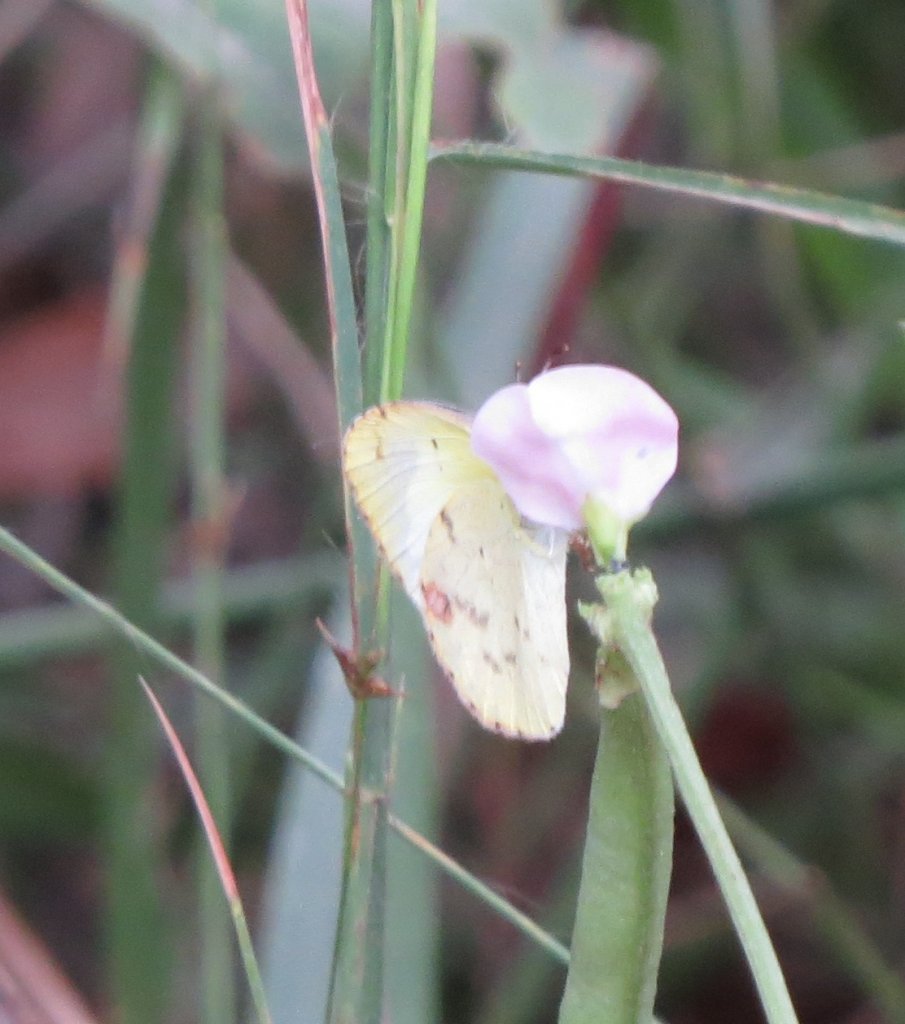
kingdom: Animalia
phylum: Arthropoda
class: Insecta
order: Lepidoptera
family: Pieridae
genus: Pyrisitia
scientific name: Pyrisitia lisa
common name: Little Yellow
